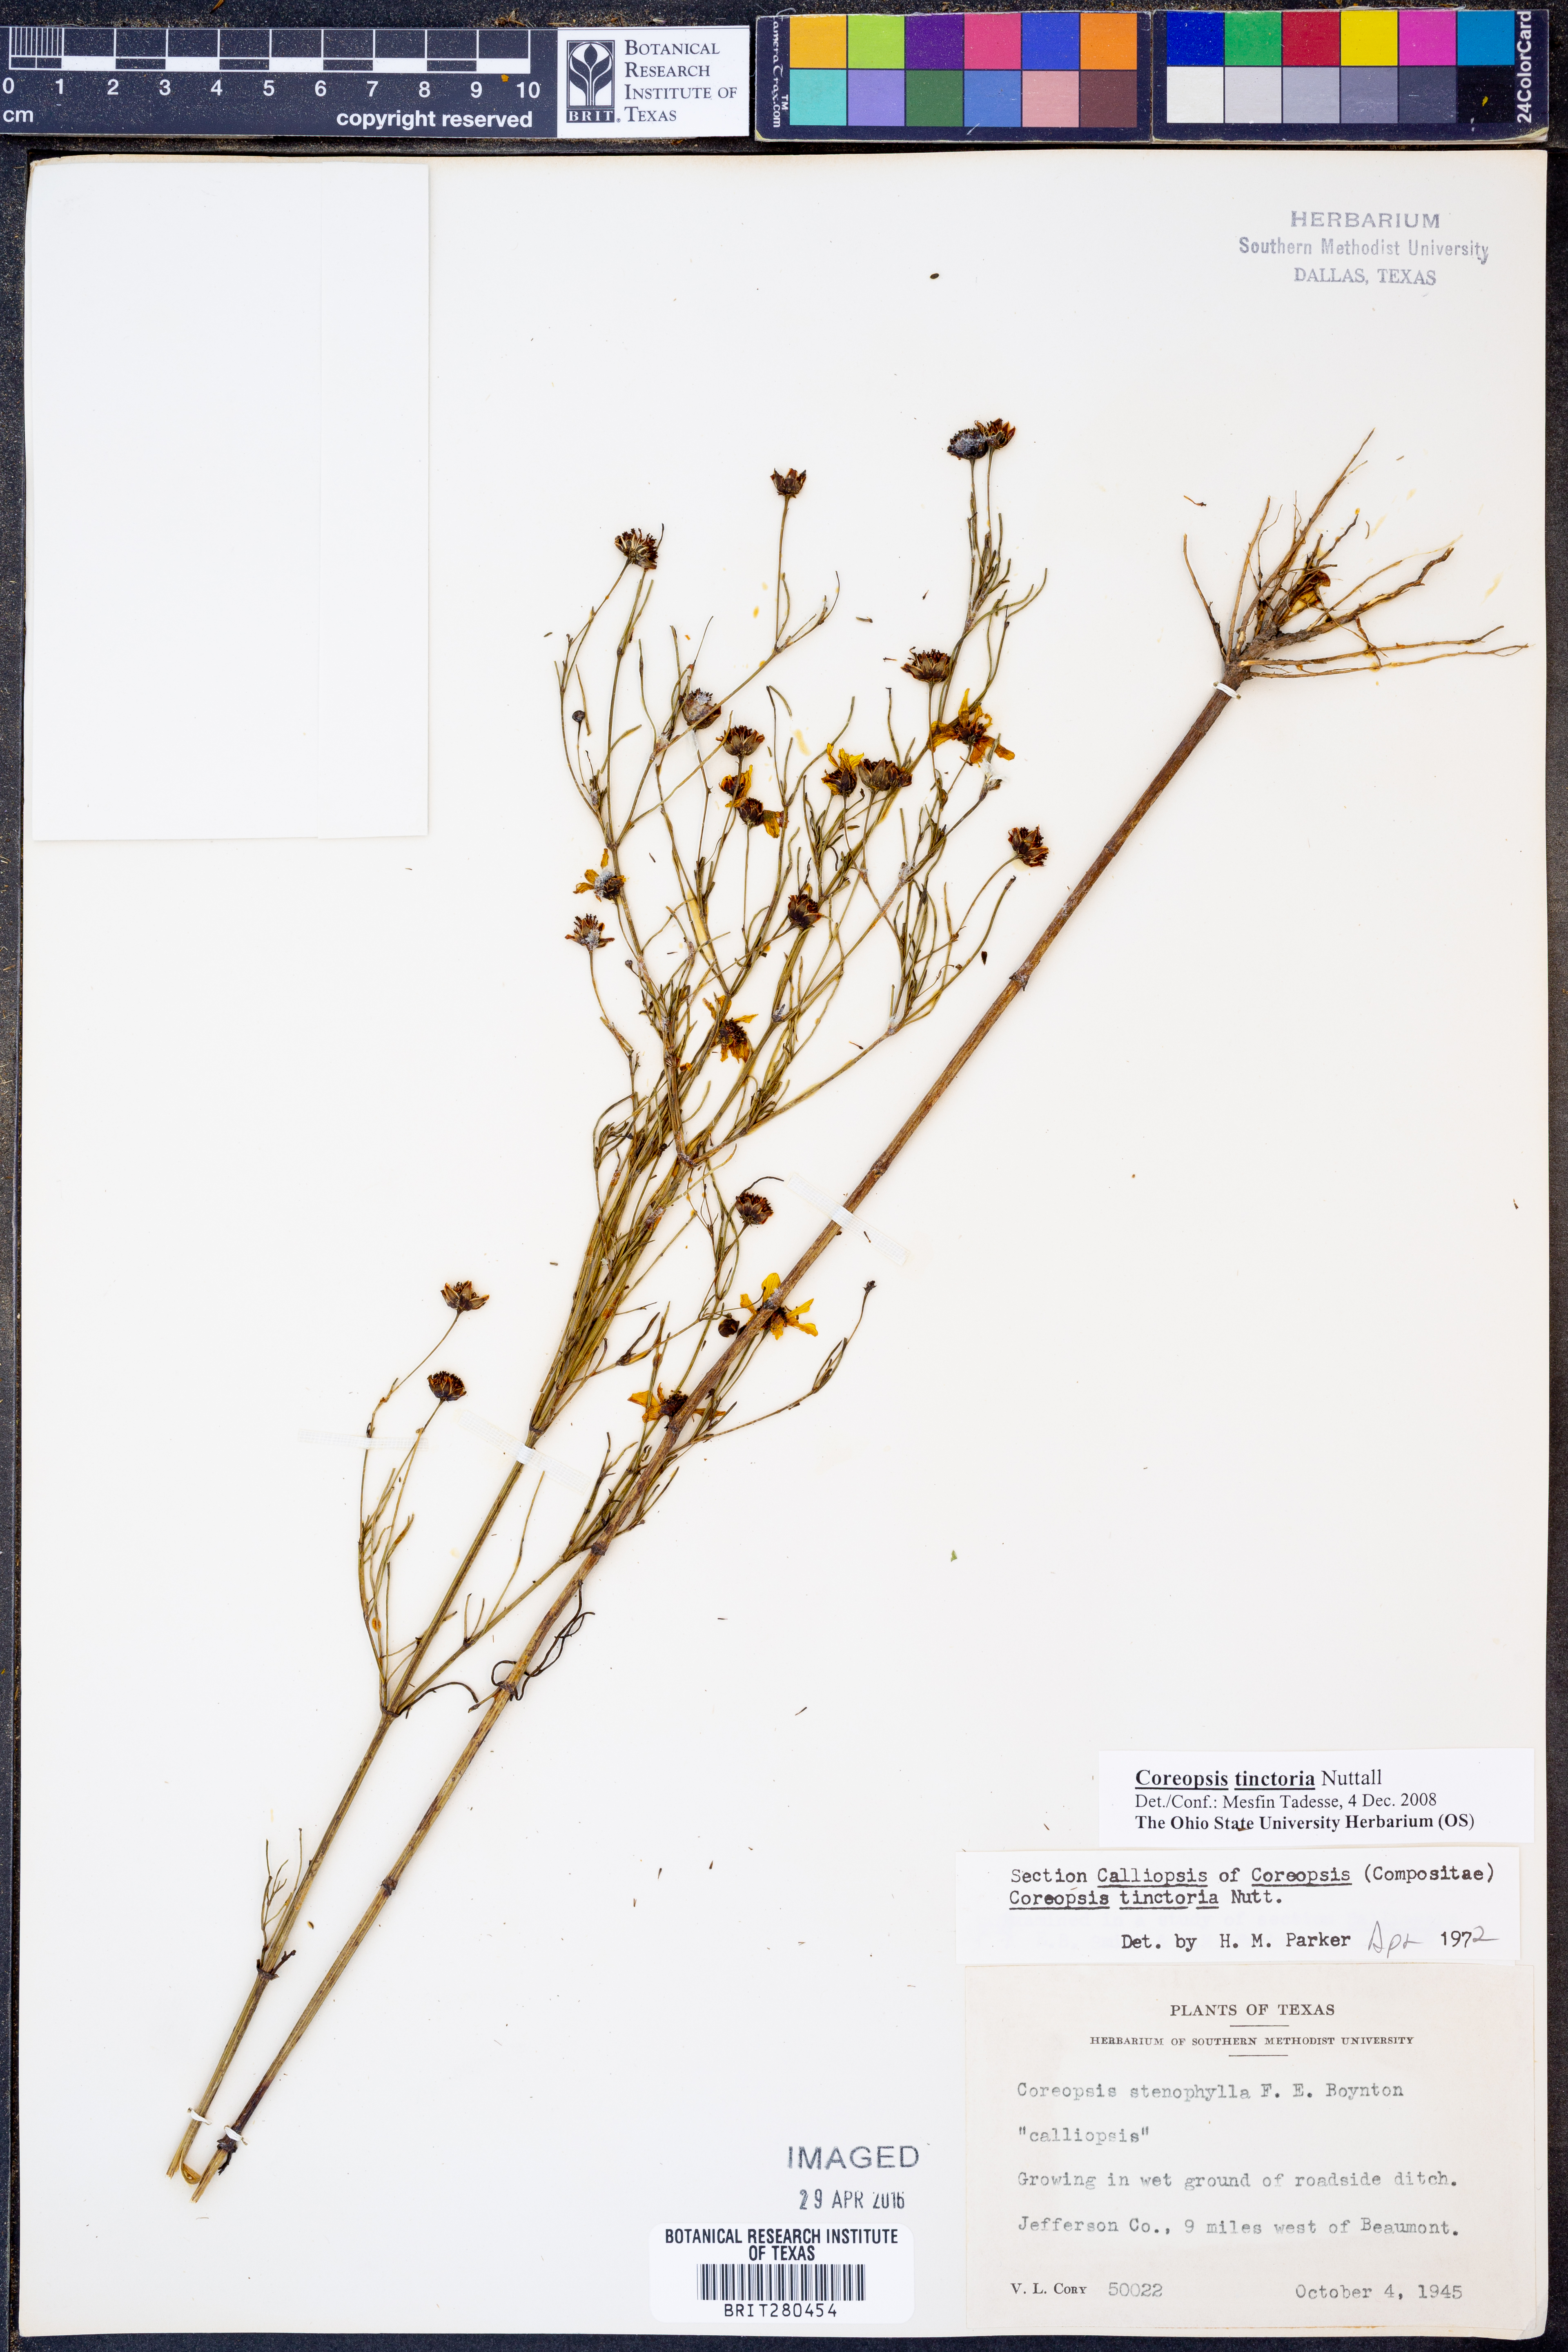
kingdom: Plantae
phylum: Tracheophyta
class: Magnoliopsida
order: Asterales
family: Asteraceae
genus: Coreopsis
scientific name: Coreopsis tinctoria
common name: Garden tickseed
